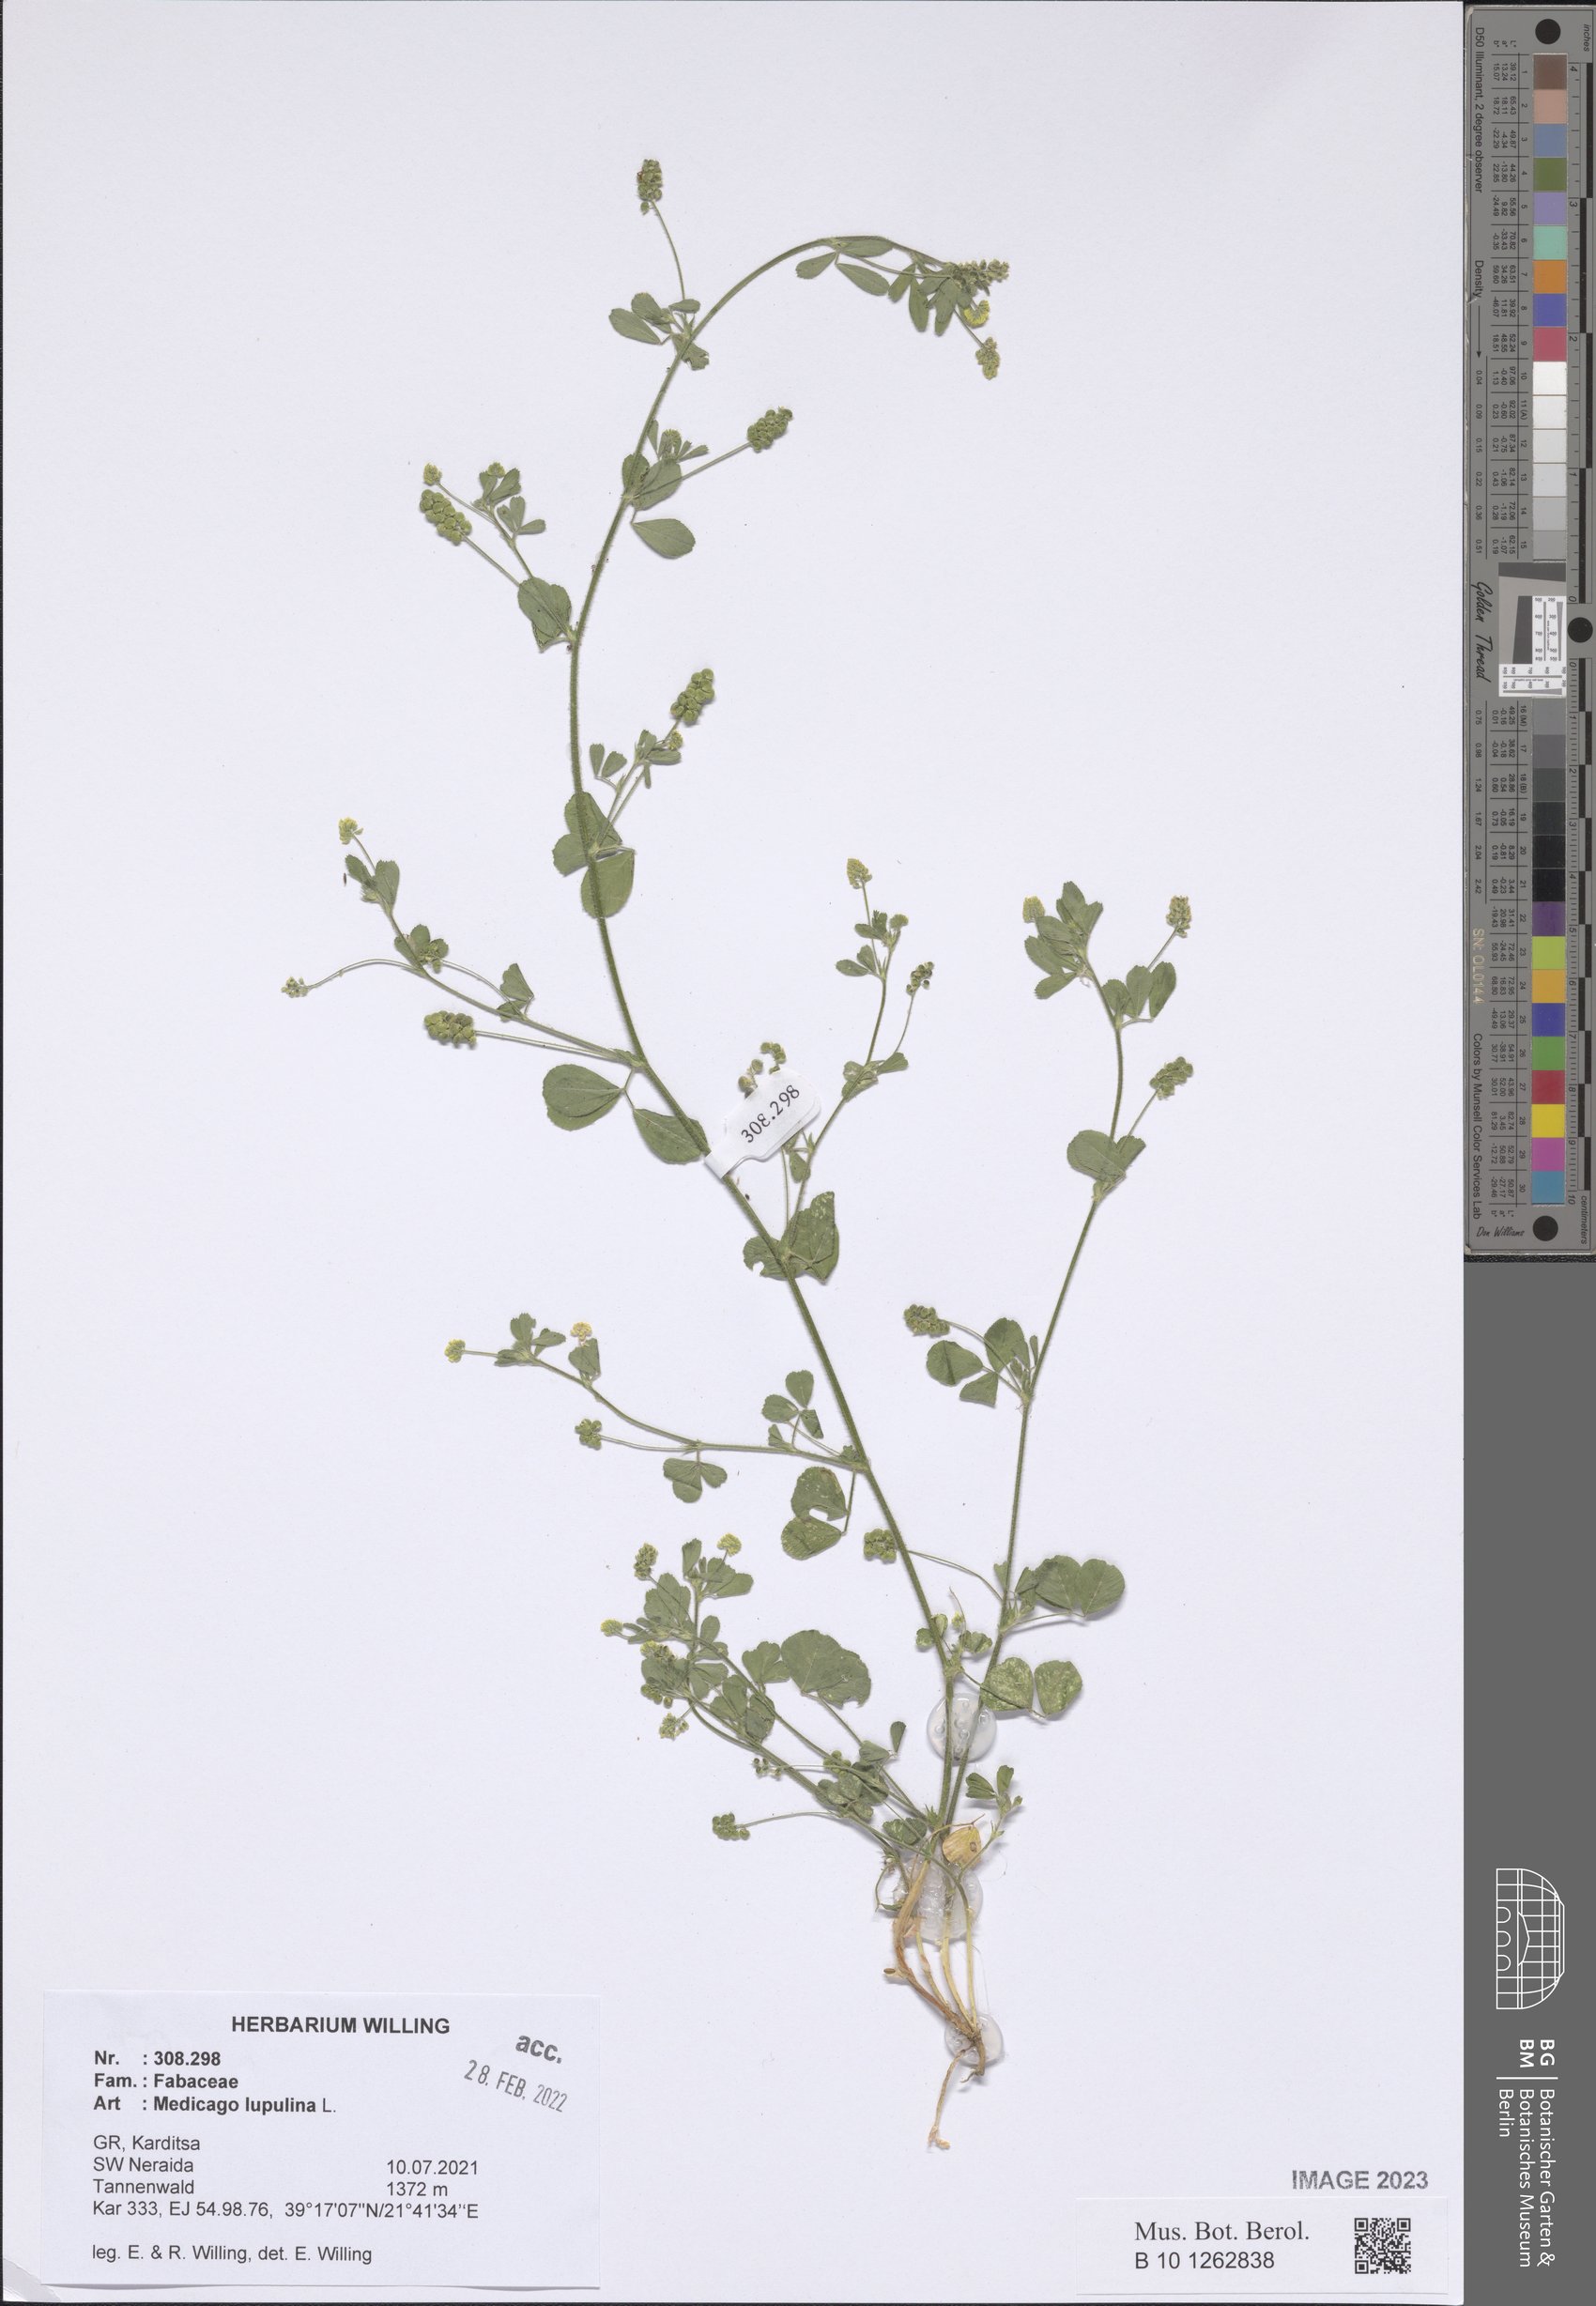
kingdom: Plantae
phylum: Tracheophyta
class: Magnoliopsida
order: Fabales
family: Fabaceae
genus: Medicago
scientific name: Medicago lupulina
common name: Black medick
